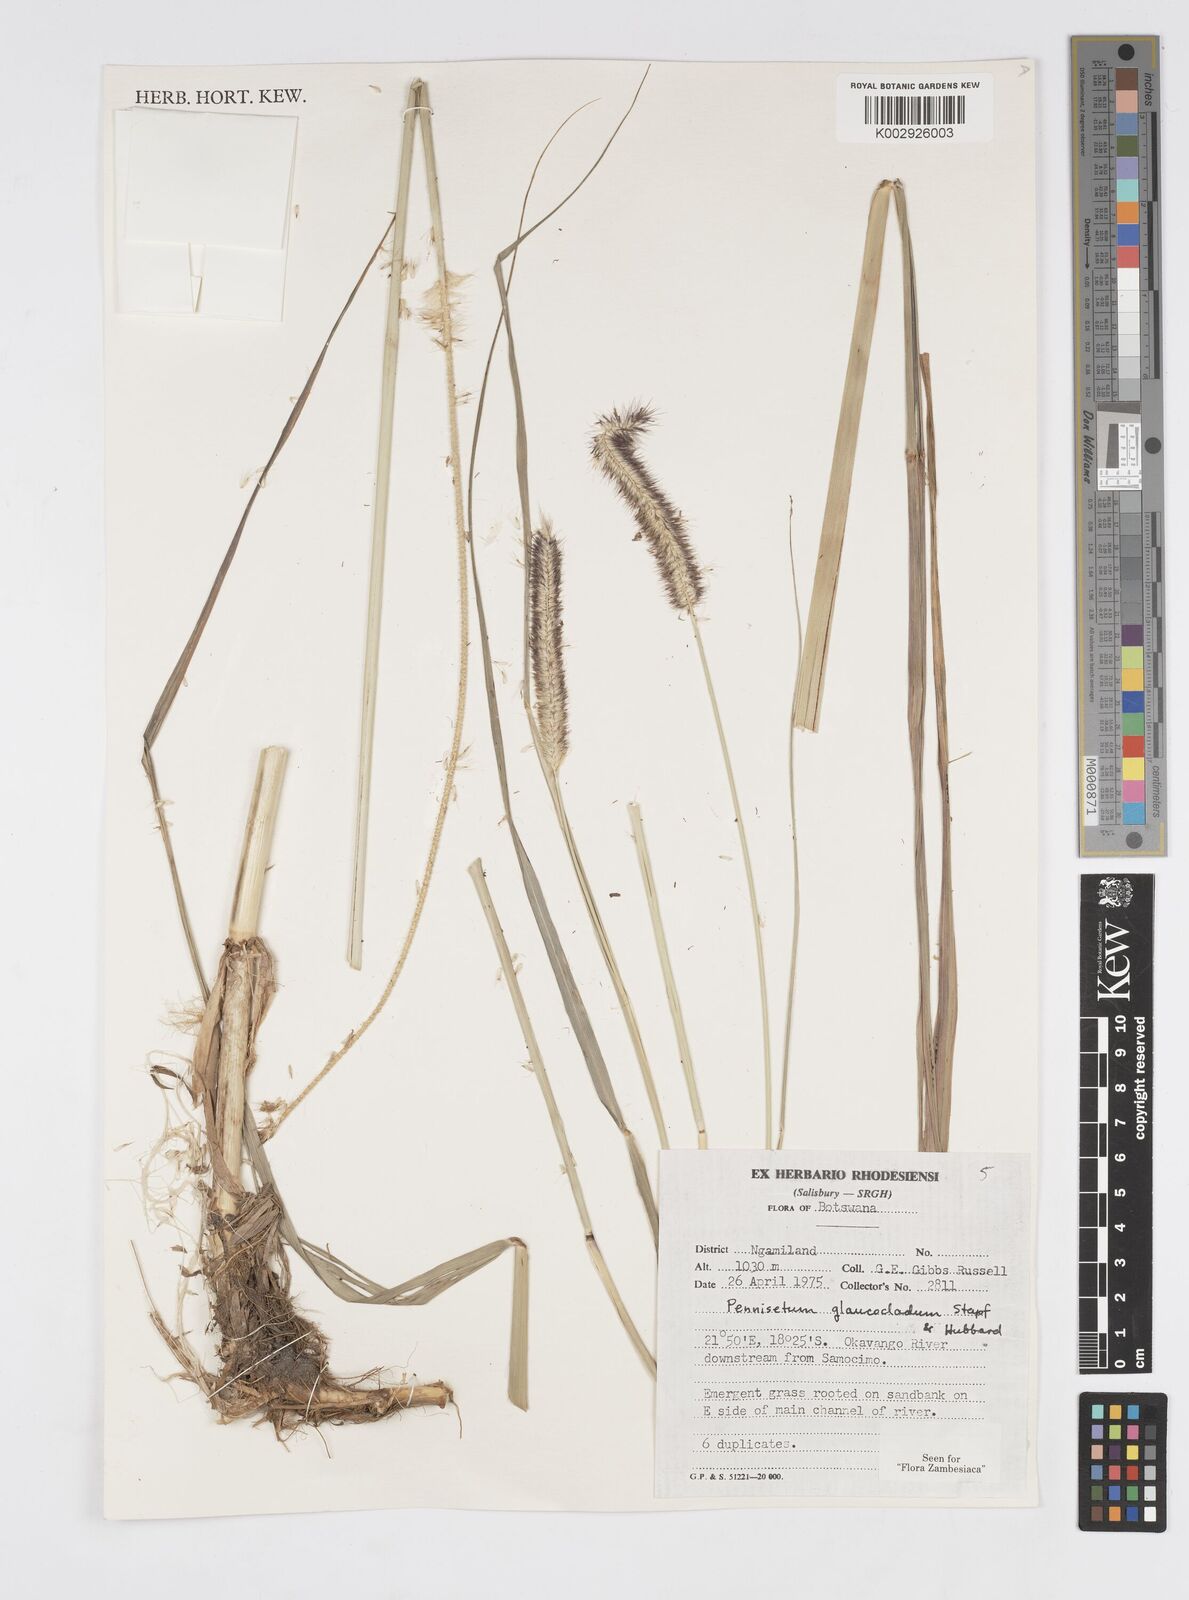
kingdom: Plantae
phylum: Tracheophyta
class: Liliopsida
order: Poales
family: Poaceae
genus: Cenchrus
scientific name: Cenchrus caudatus
